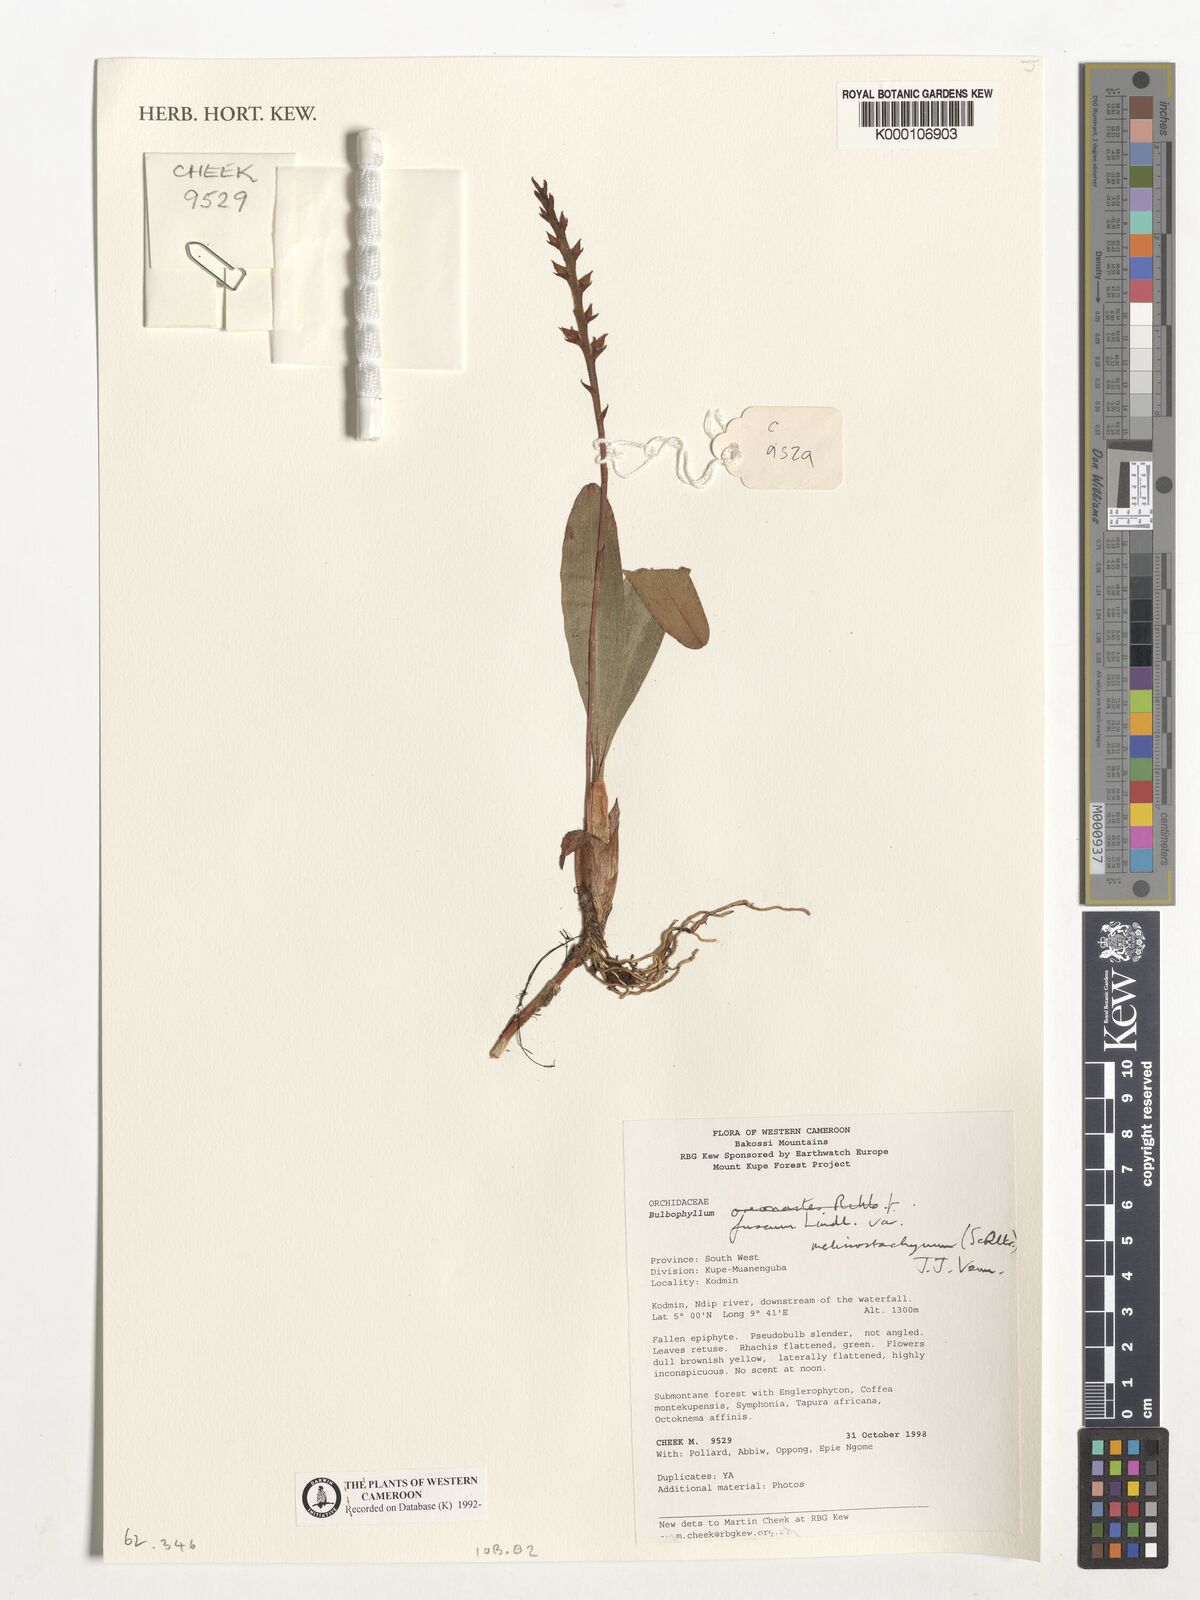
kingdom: Plantae
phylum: Tracheophyta
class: Liliopsida
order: Asparagales
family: Orchidaceae
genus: Bulbophyllum
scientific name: Bulbophyllum fuscum
